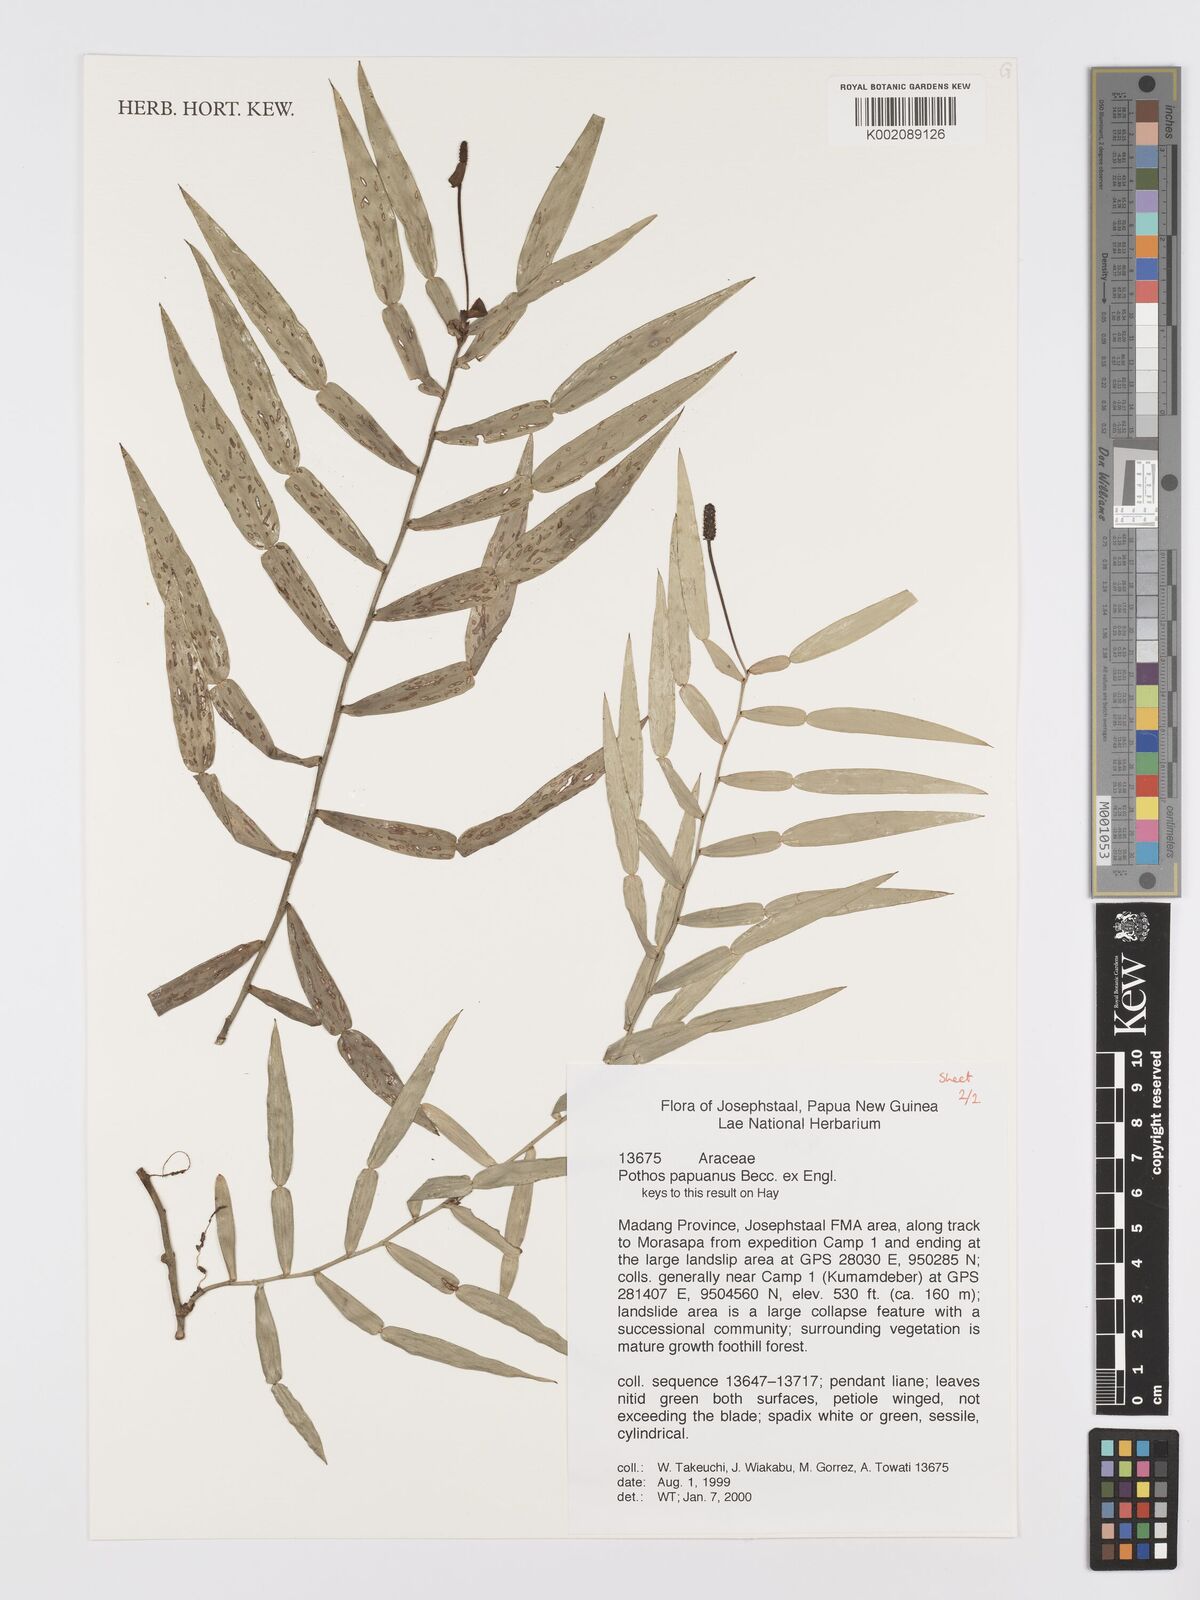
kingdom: Plantae
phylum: Tracheophyta
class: Liliopsida
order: Alismatales
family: Araceae
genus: Pothos
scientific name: Pothos papuanus
